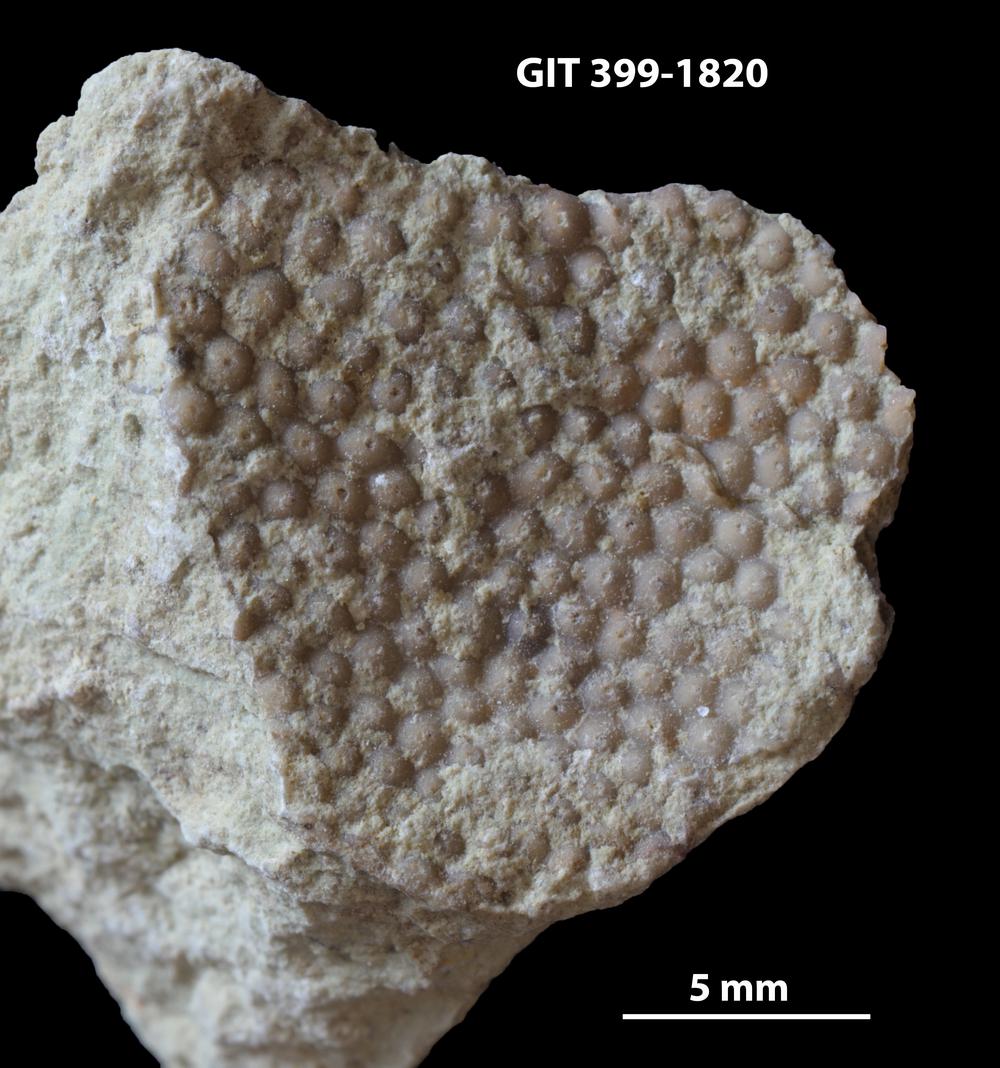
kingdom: Plantae
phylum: Chlorophyta
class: Ulvophyceae
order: Cyclocrinales
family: Cyclocrinaceae
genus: Mastopora
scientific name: Mastopora concava
